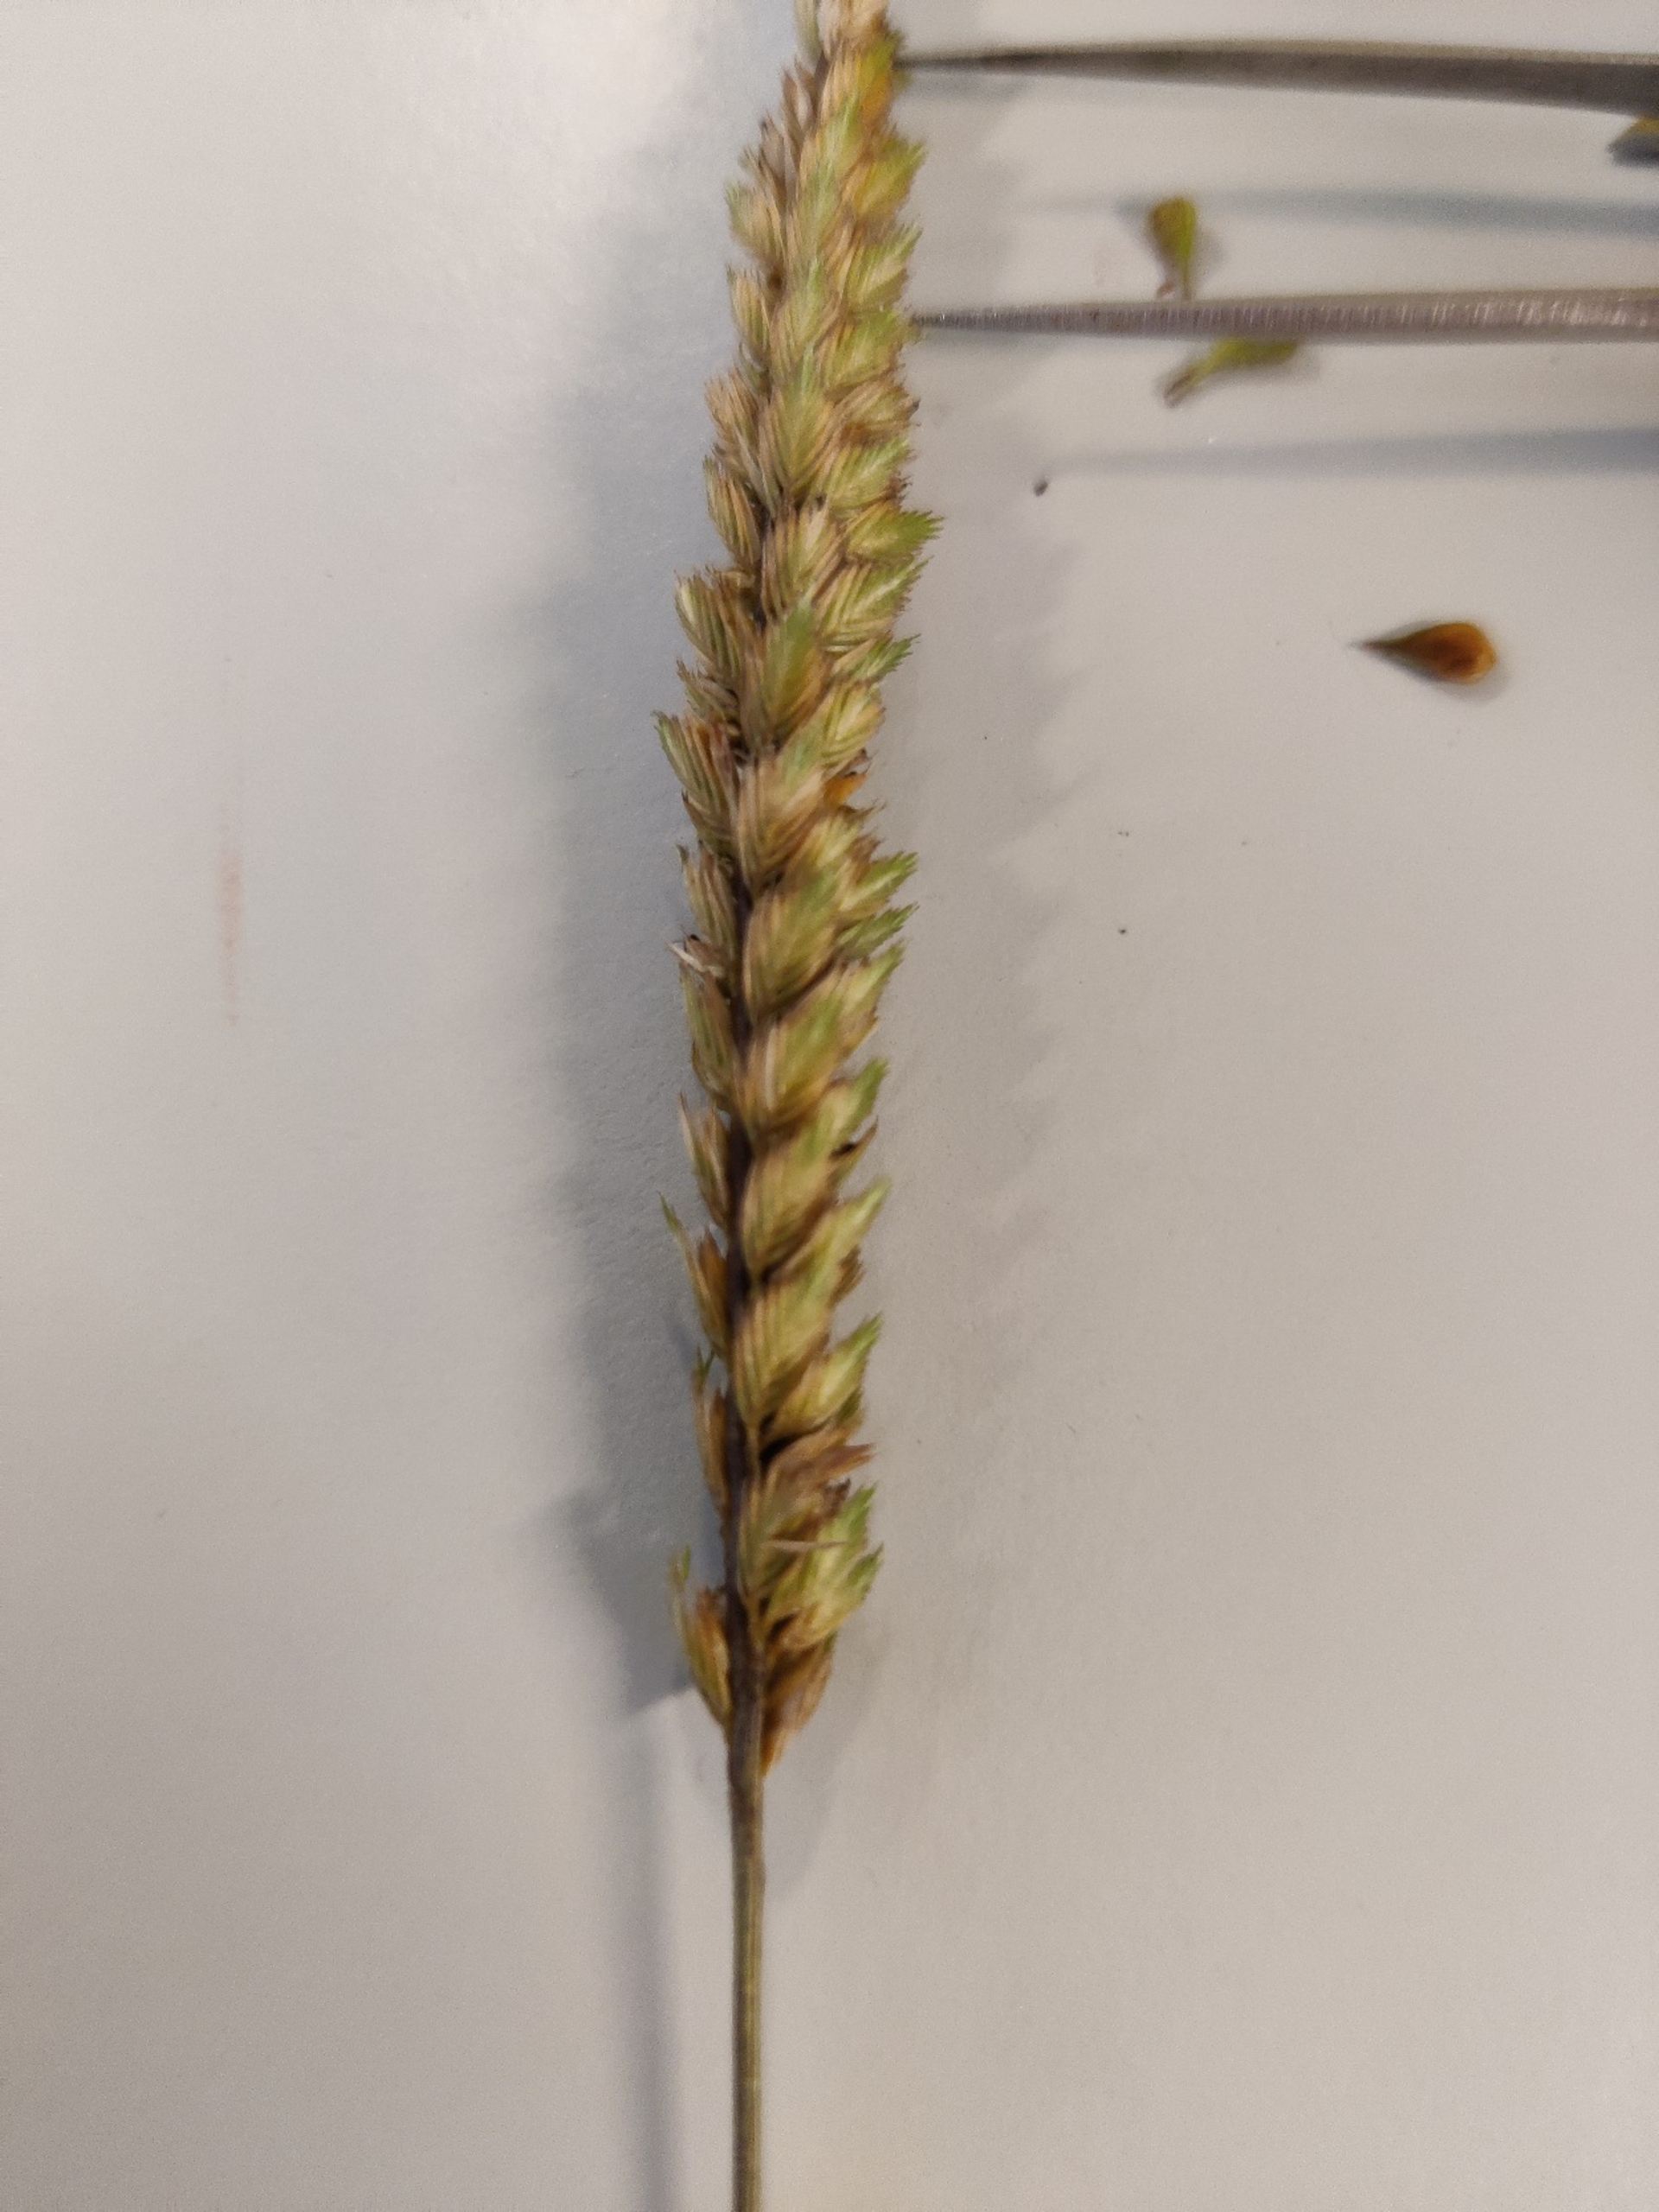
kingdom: Plantae
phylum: Tracheophyta
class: Liliopsida
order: Poales
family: Poaceae
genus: Cynosurus
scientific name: Cynosurus cristatus
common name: Kamgræs
